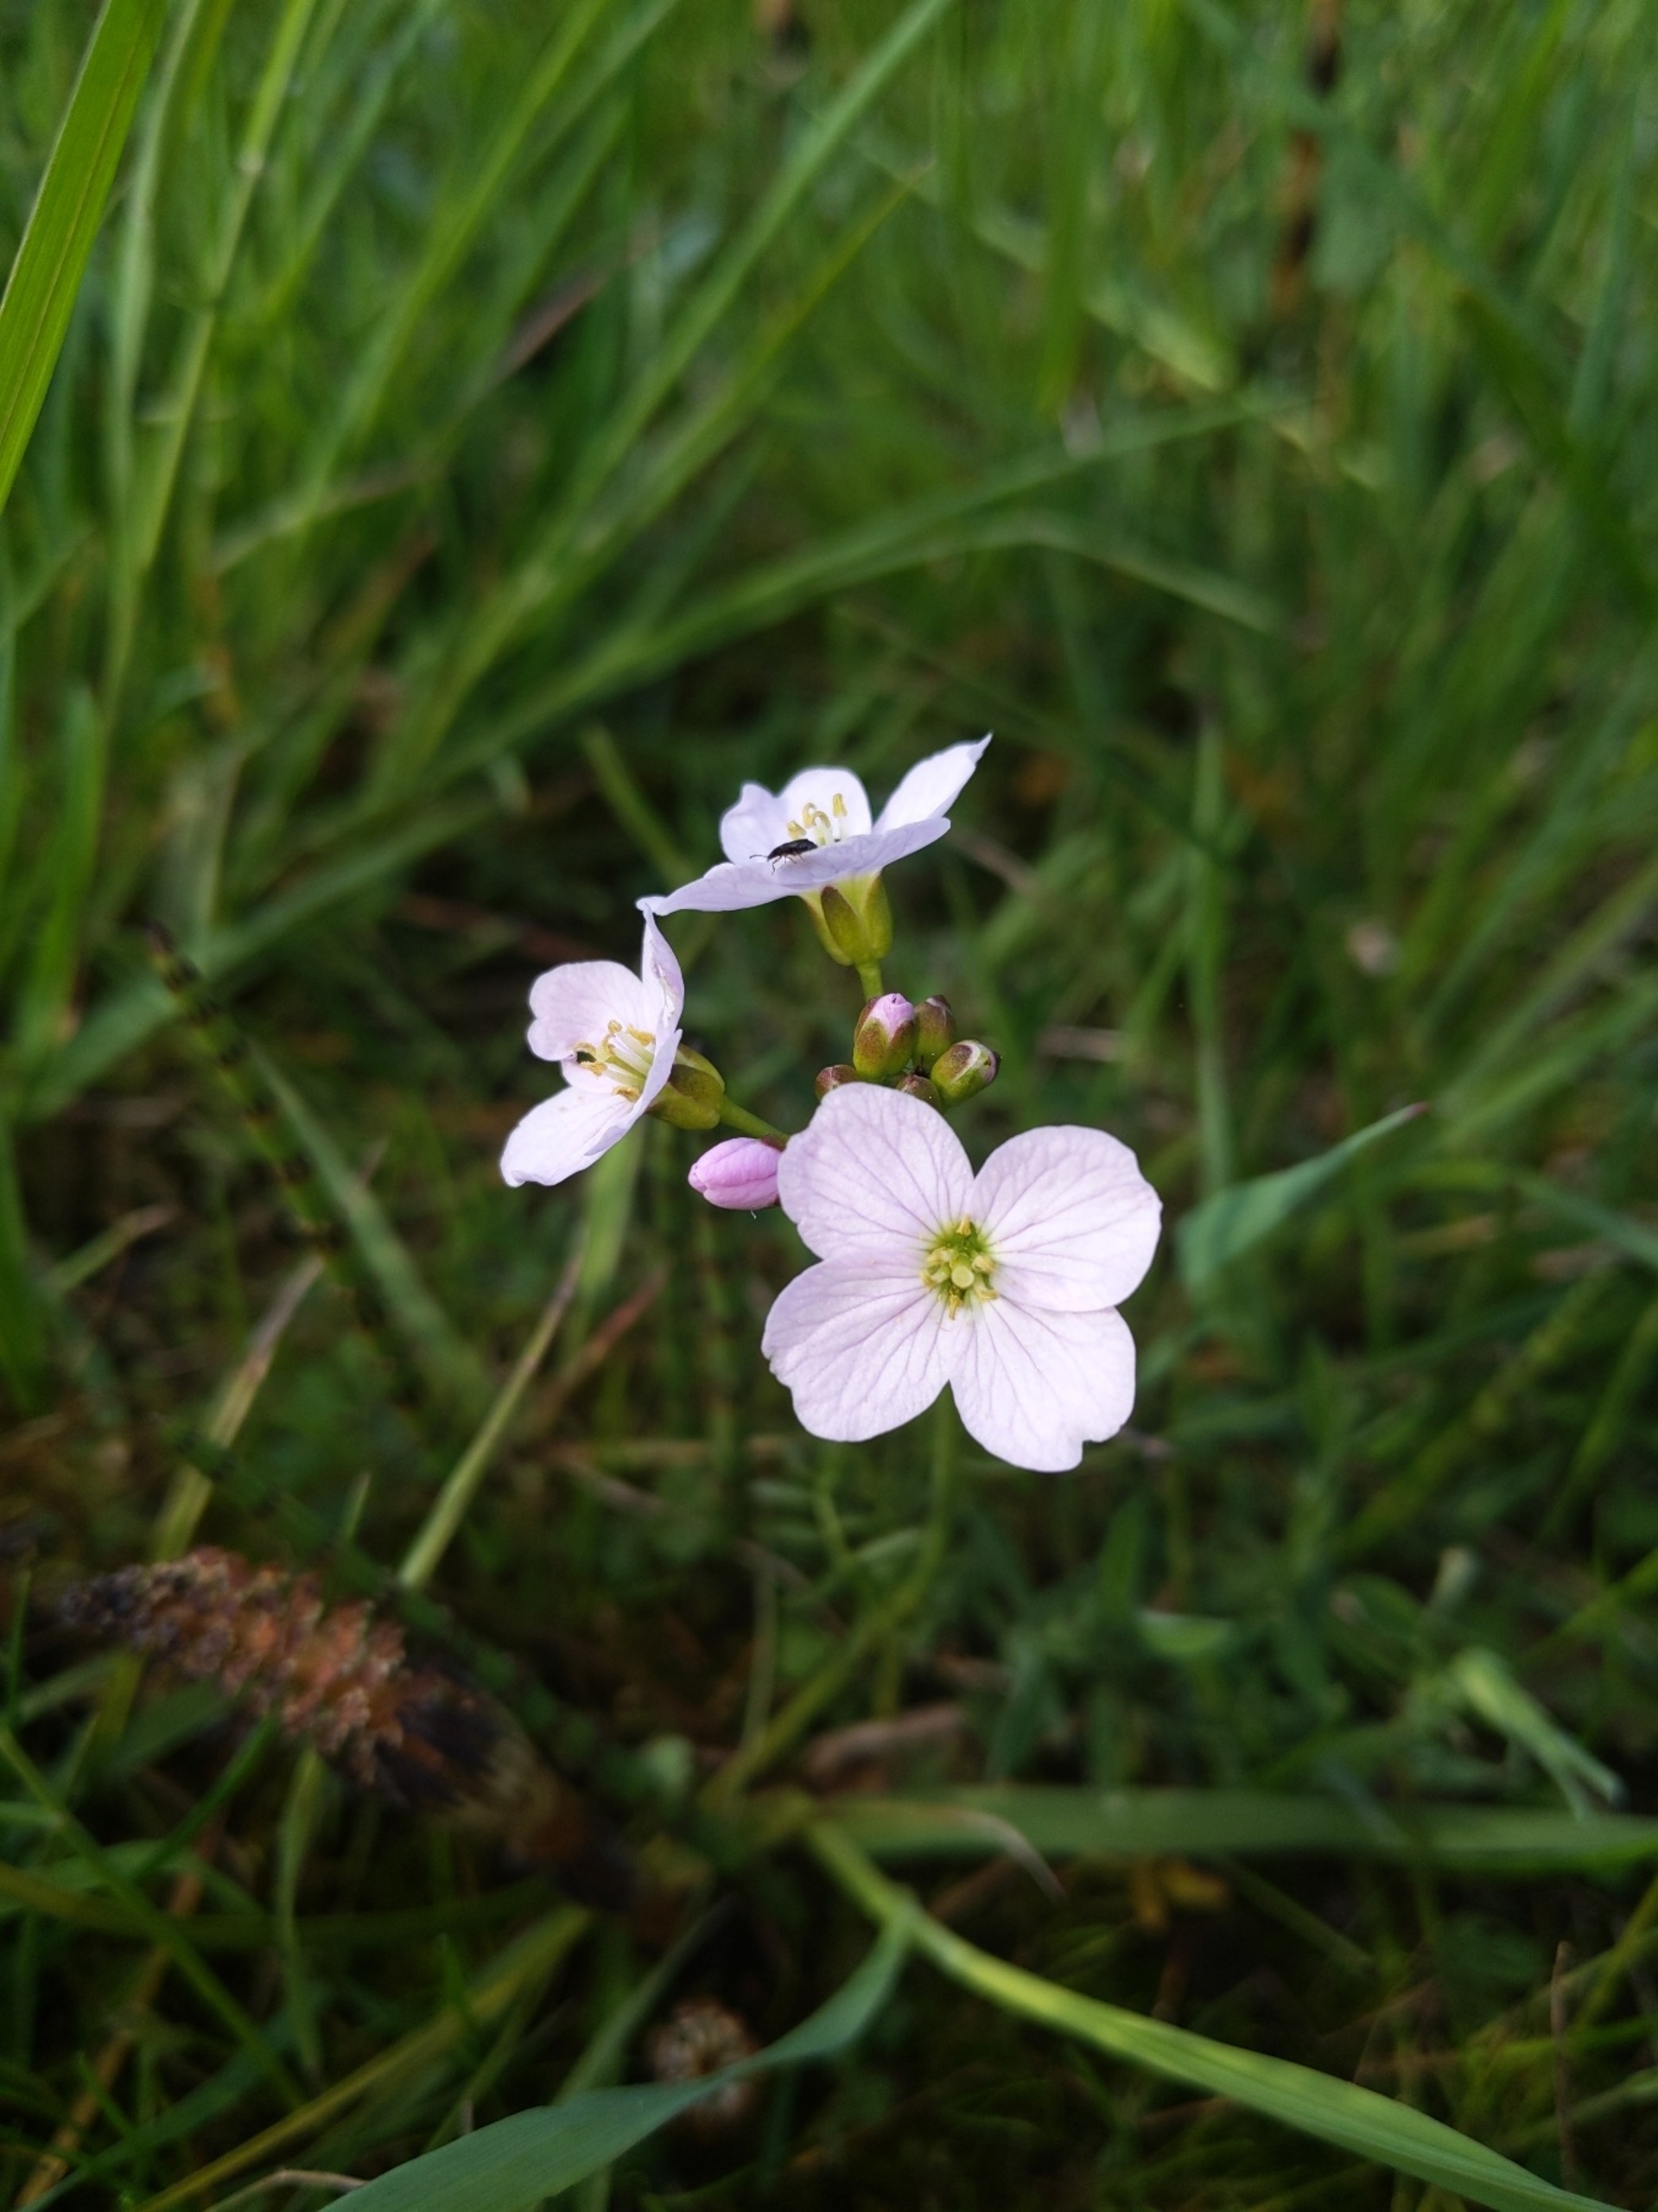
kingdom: Plantae
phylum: Tracheophyta
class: Magnoliopsida
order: Brassicales
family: Brassicaceae
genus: Cardamine
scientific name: Cardamine pratensis
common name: Engkarse
